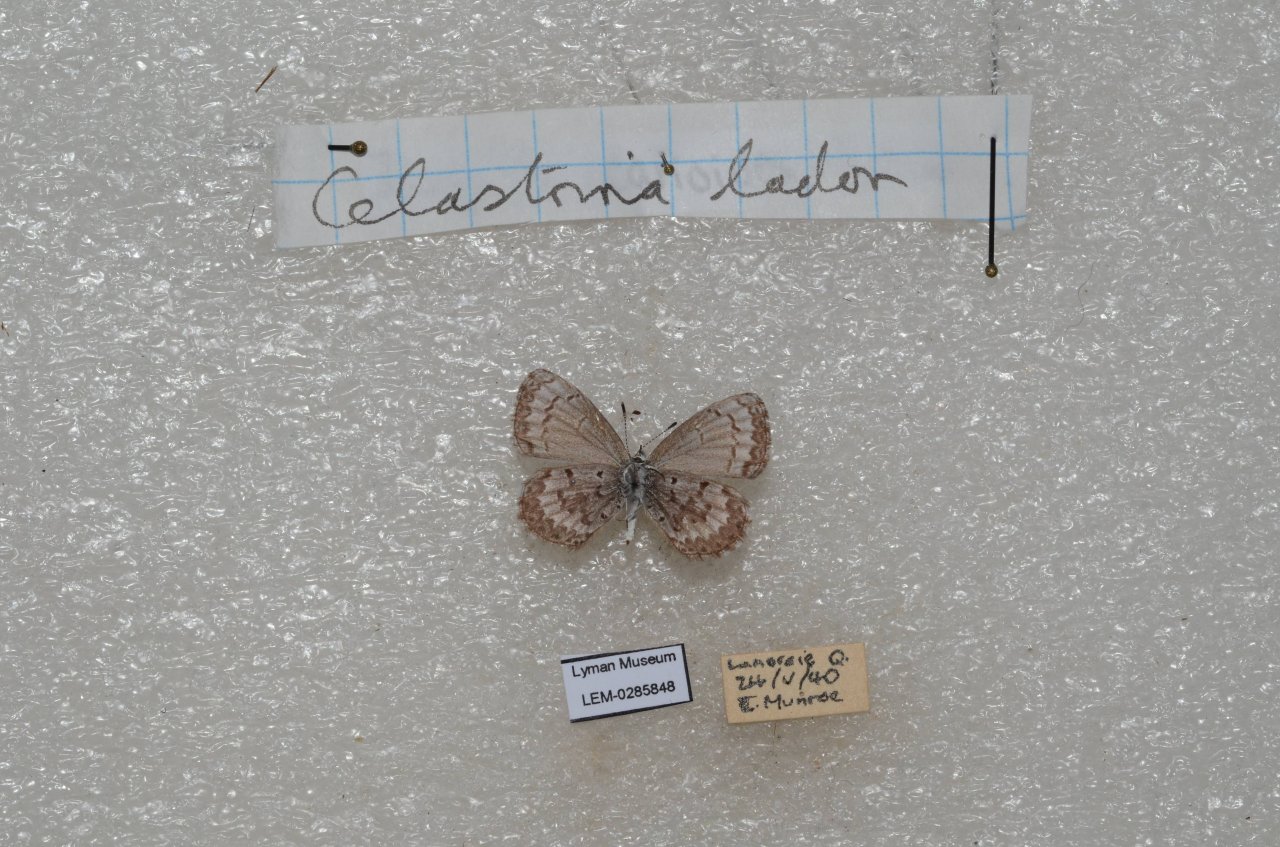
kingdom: Animalia
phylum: Arthropoda
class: Insecta
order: Lepidoptera
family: Lycaenidae
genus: Celastrina
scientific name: Celastrina lucia
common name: Northern Spring Azure
